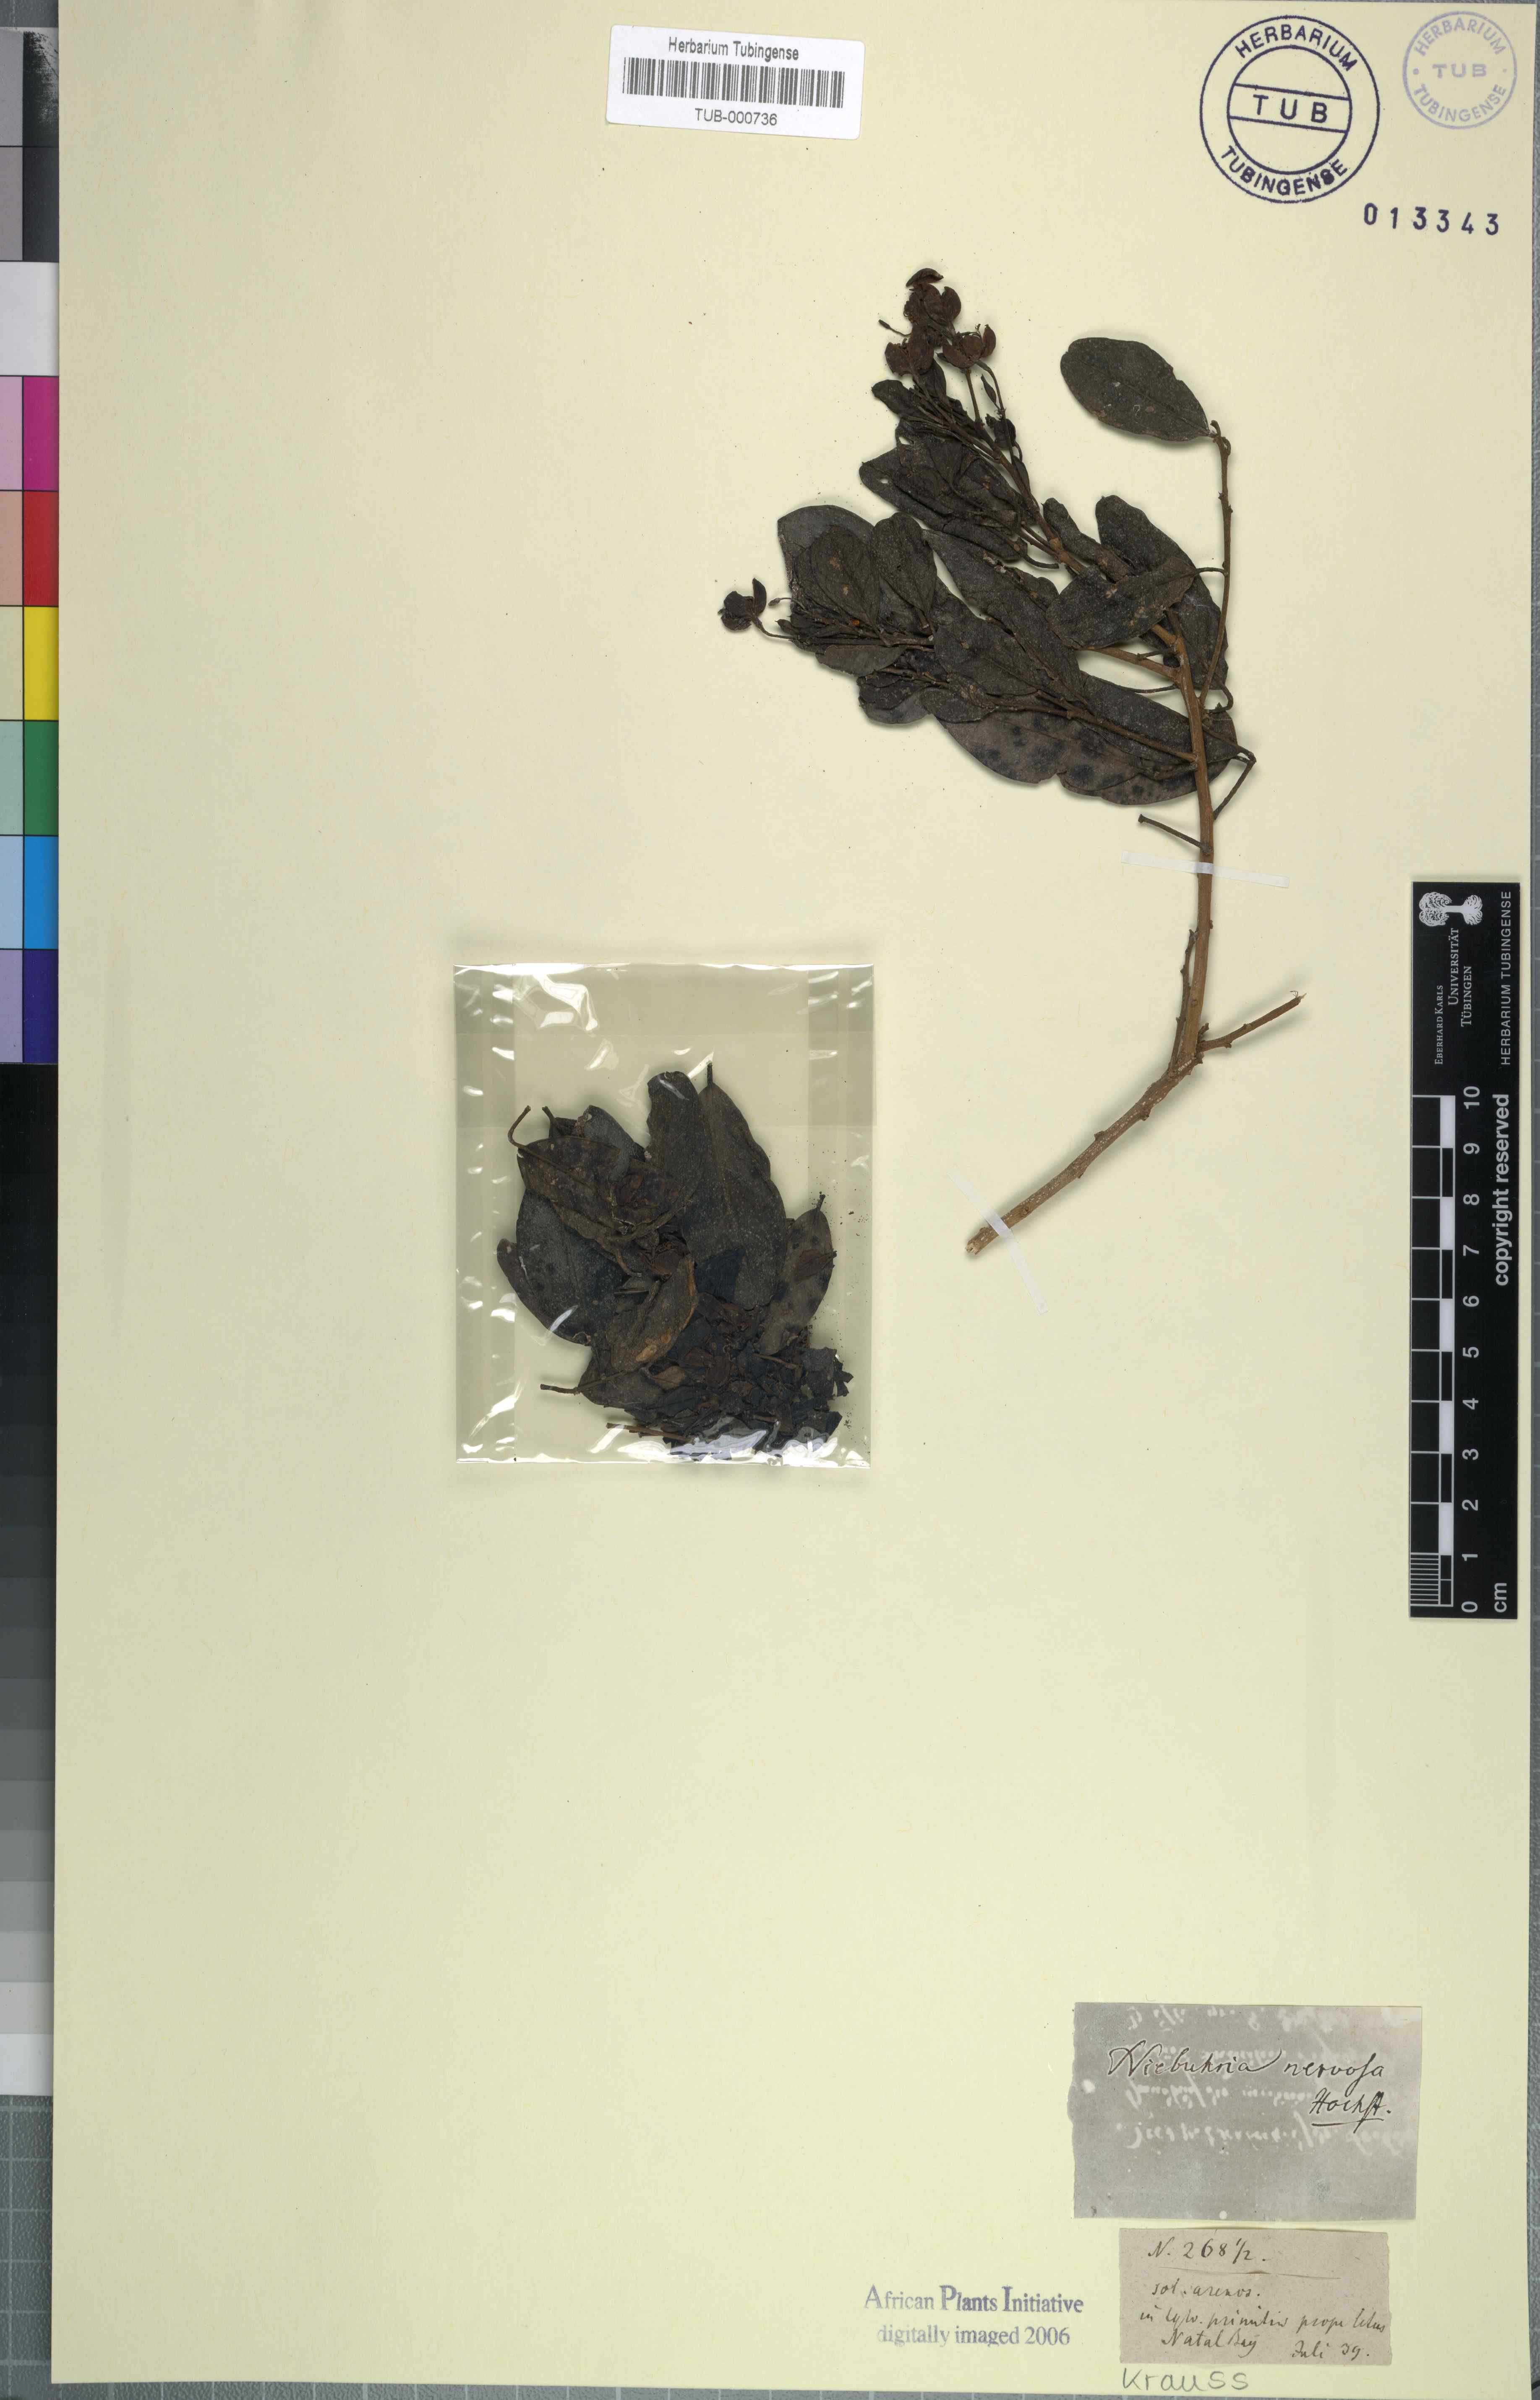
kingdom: Plantae
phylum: Tracheophyta
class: Magnoliopsida
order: Brassicales
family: Capparaceae
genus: Maerua
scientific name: Maerua nervosa
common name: Natal bush-cherry
